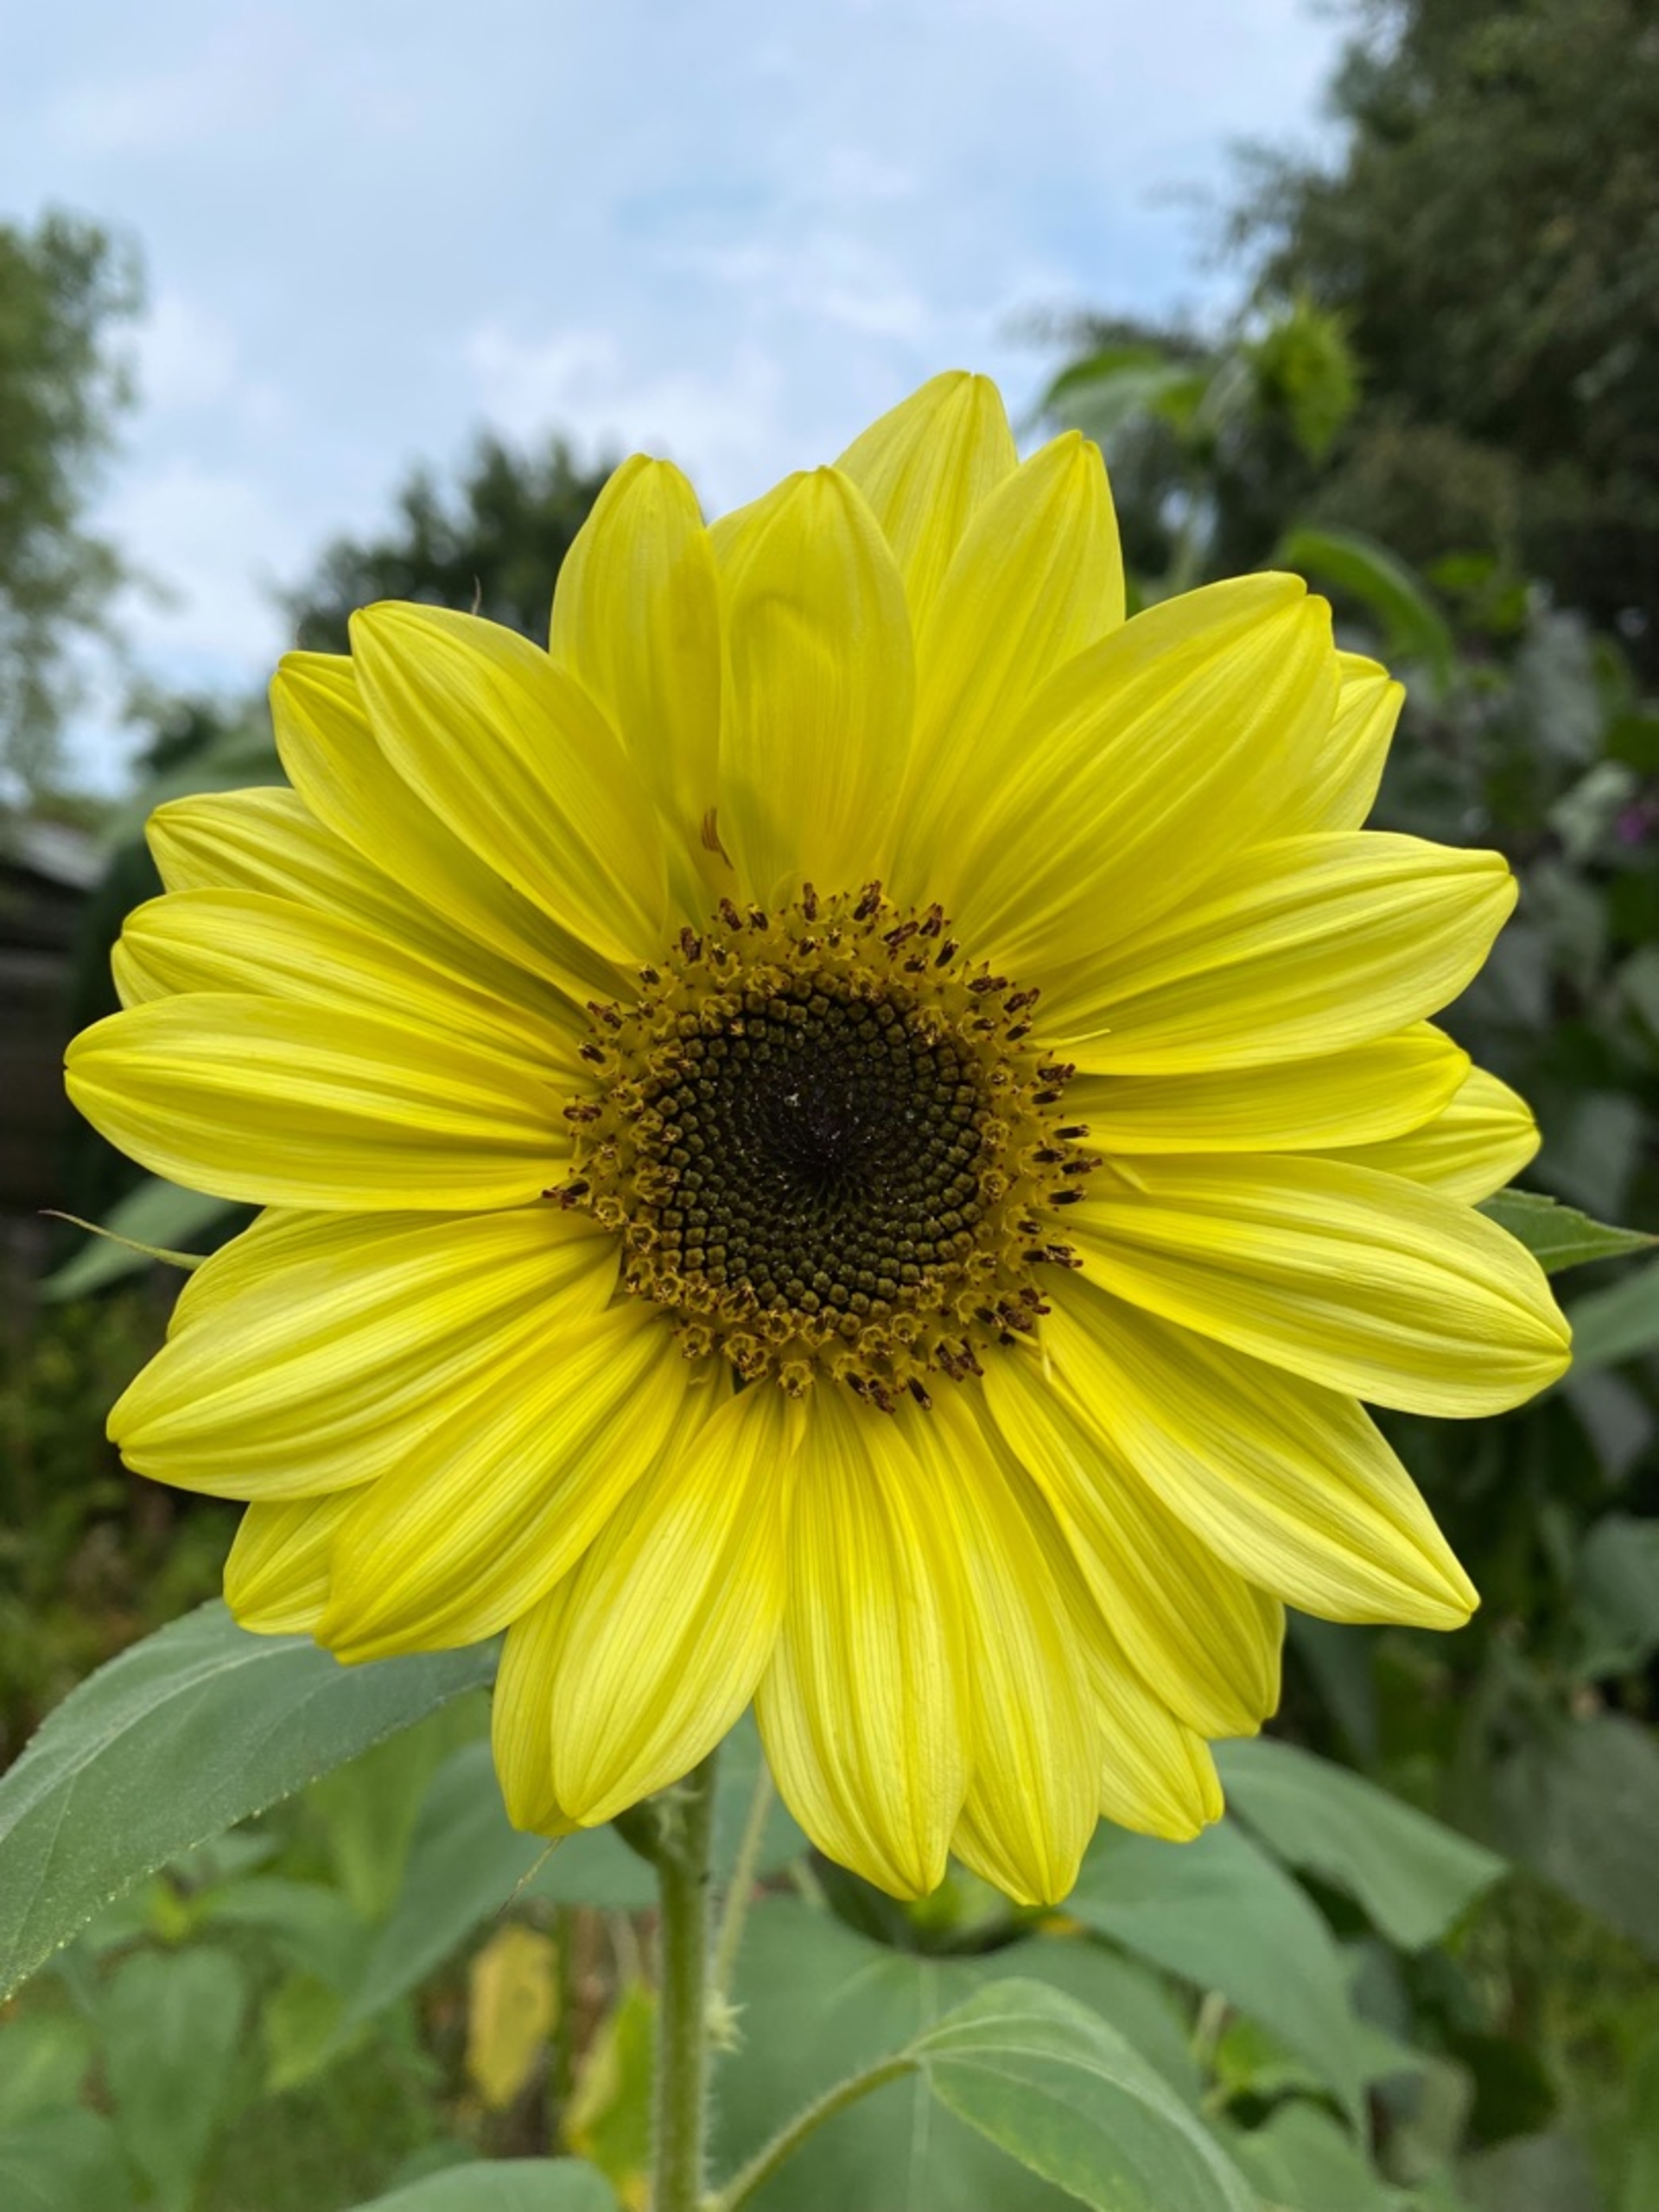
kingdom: Plantae
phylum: Tracheophyta
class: Magnoliopsida
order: Asterales
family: Asteraceae
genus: Helianthus
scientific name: Helianthus annuus
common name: Solsikke
